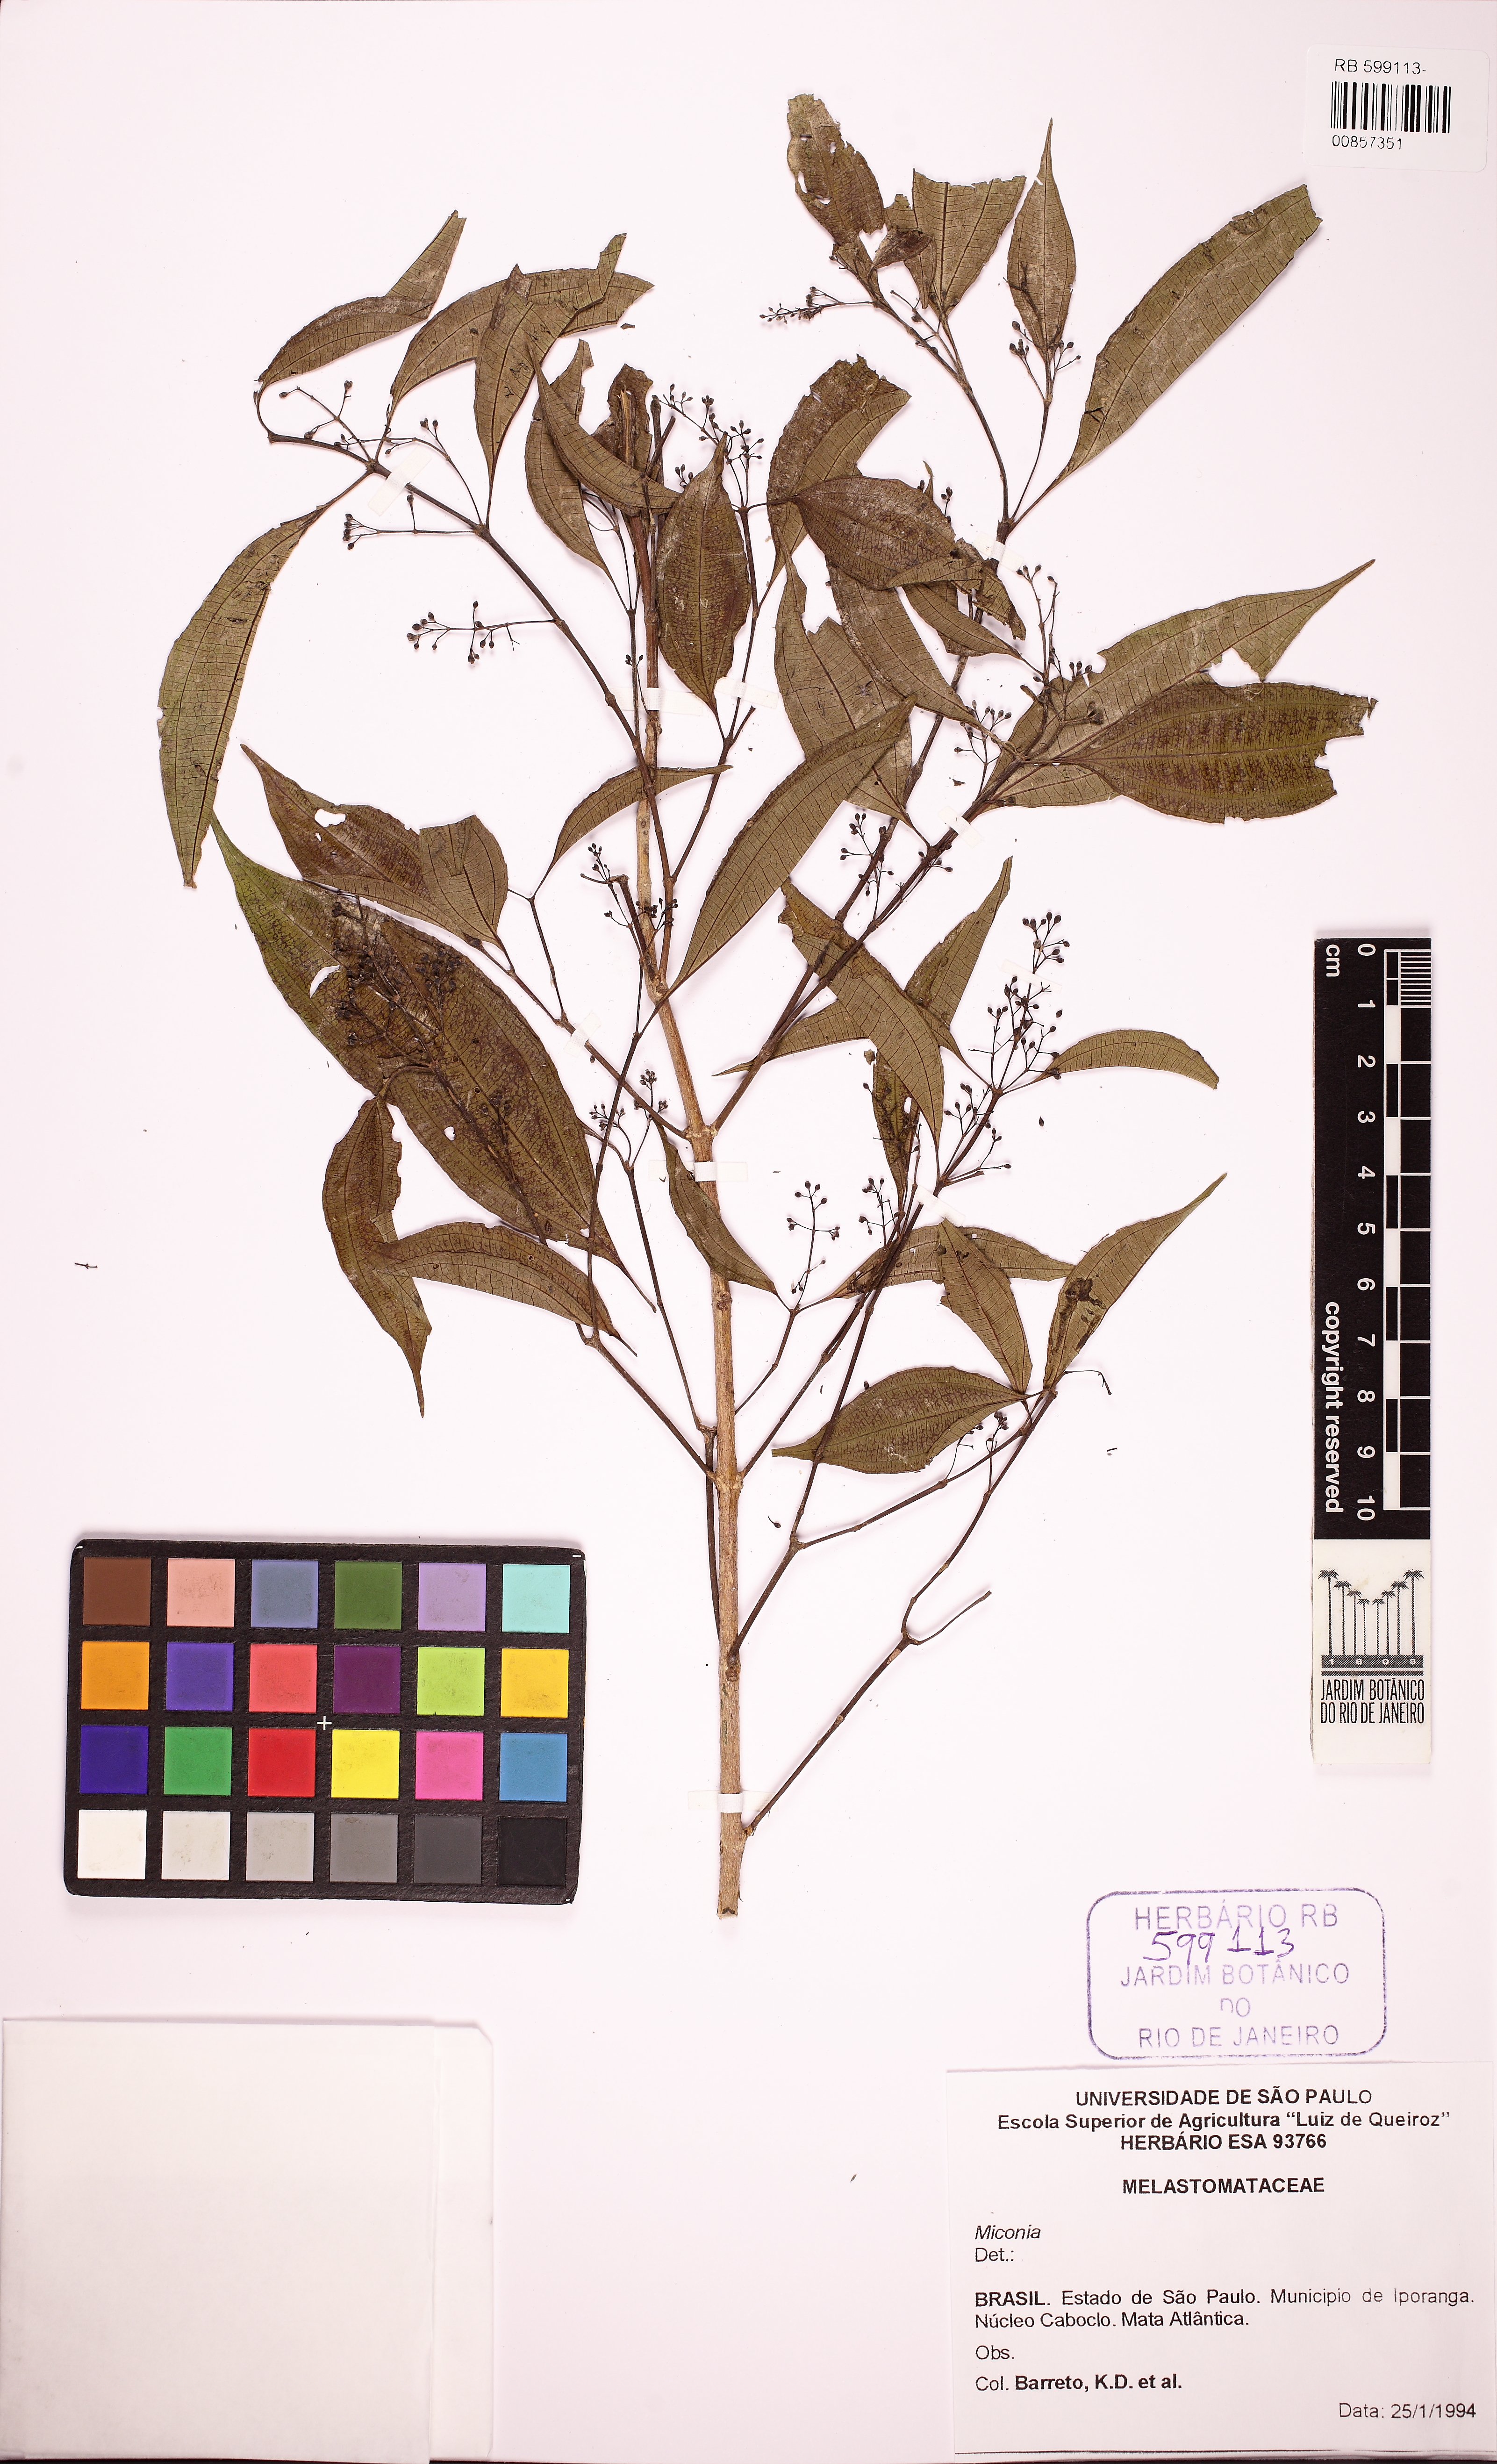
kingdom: Plantae
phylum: Tracheophyta
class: Magnoliopsida
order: Myrtales
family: Melastomataceae
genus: Miconia
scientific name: Miconia tristis
